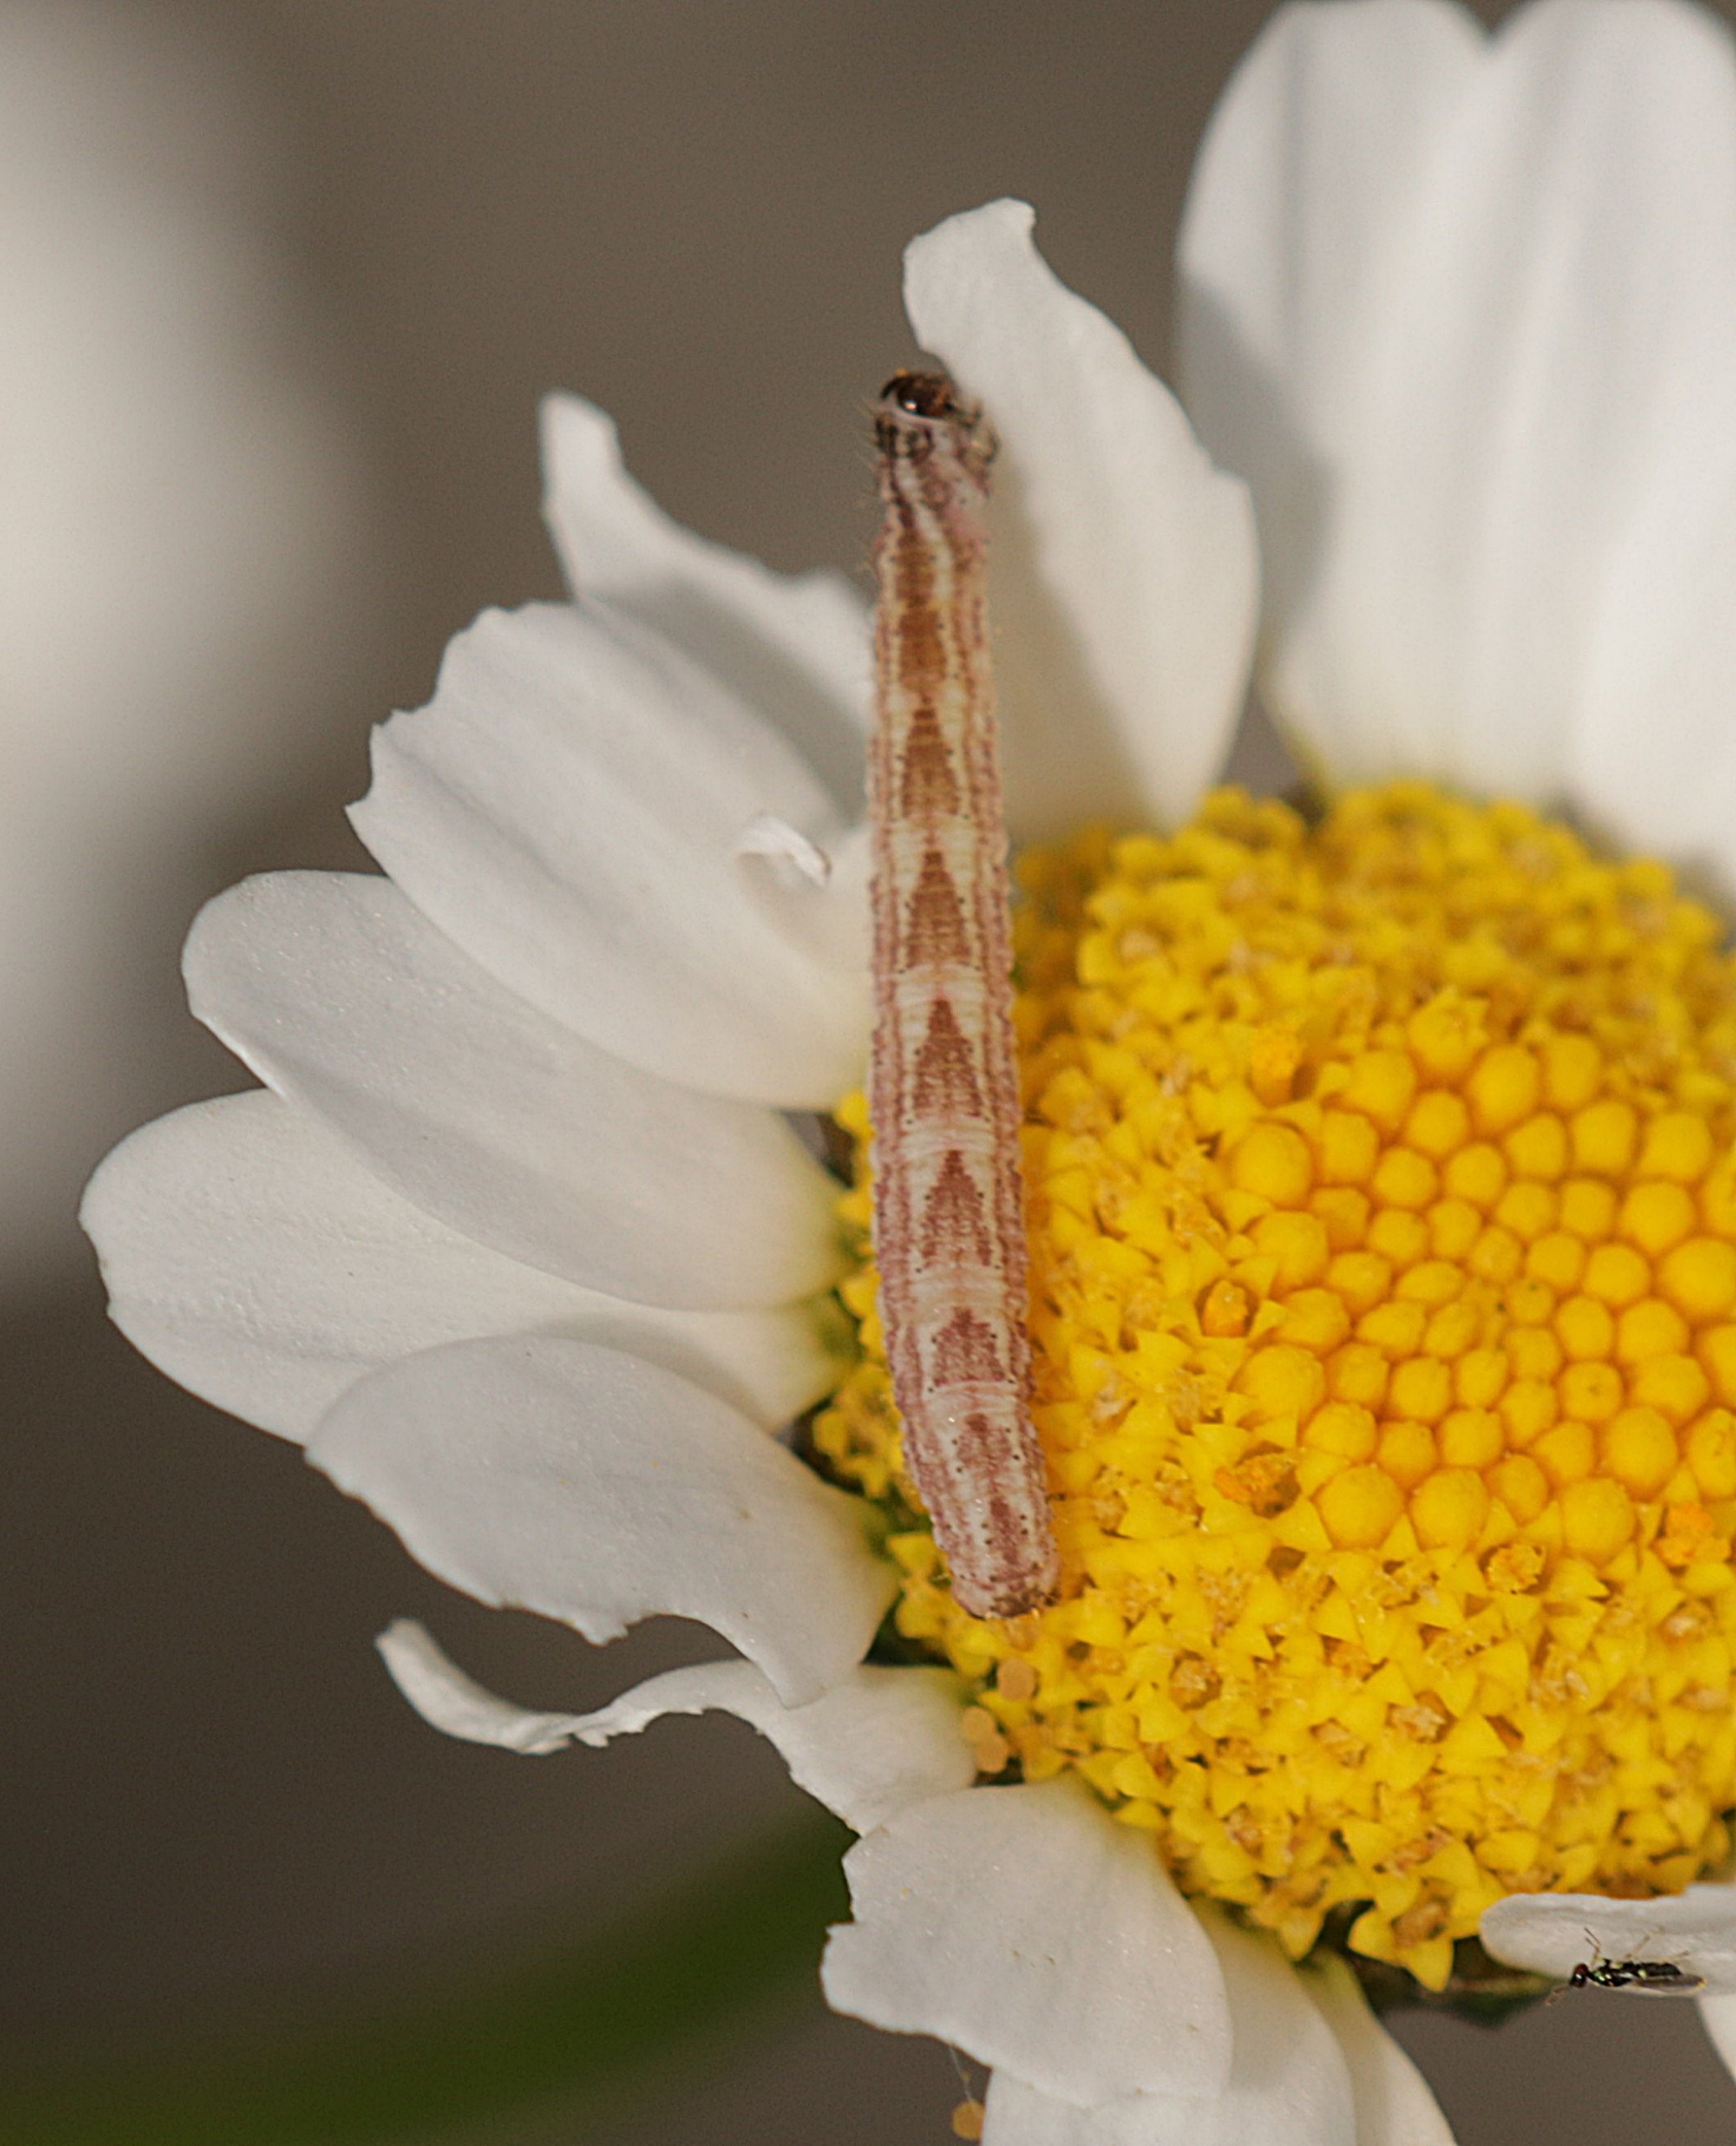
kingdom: Animalia
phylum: Arthropoda
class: Insecta
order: Lepidoptera
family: Geometridae
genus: Gymnoscelis
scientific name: Gymnoscelis rufifasciata
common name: Rødbåndet dværgmåler
